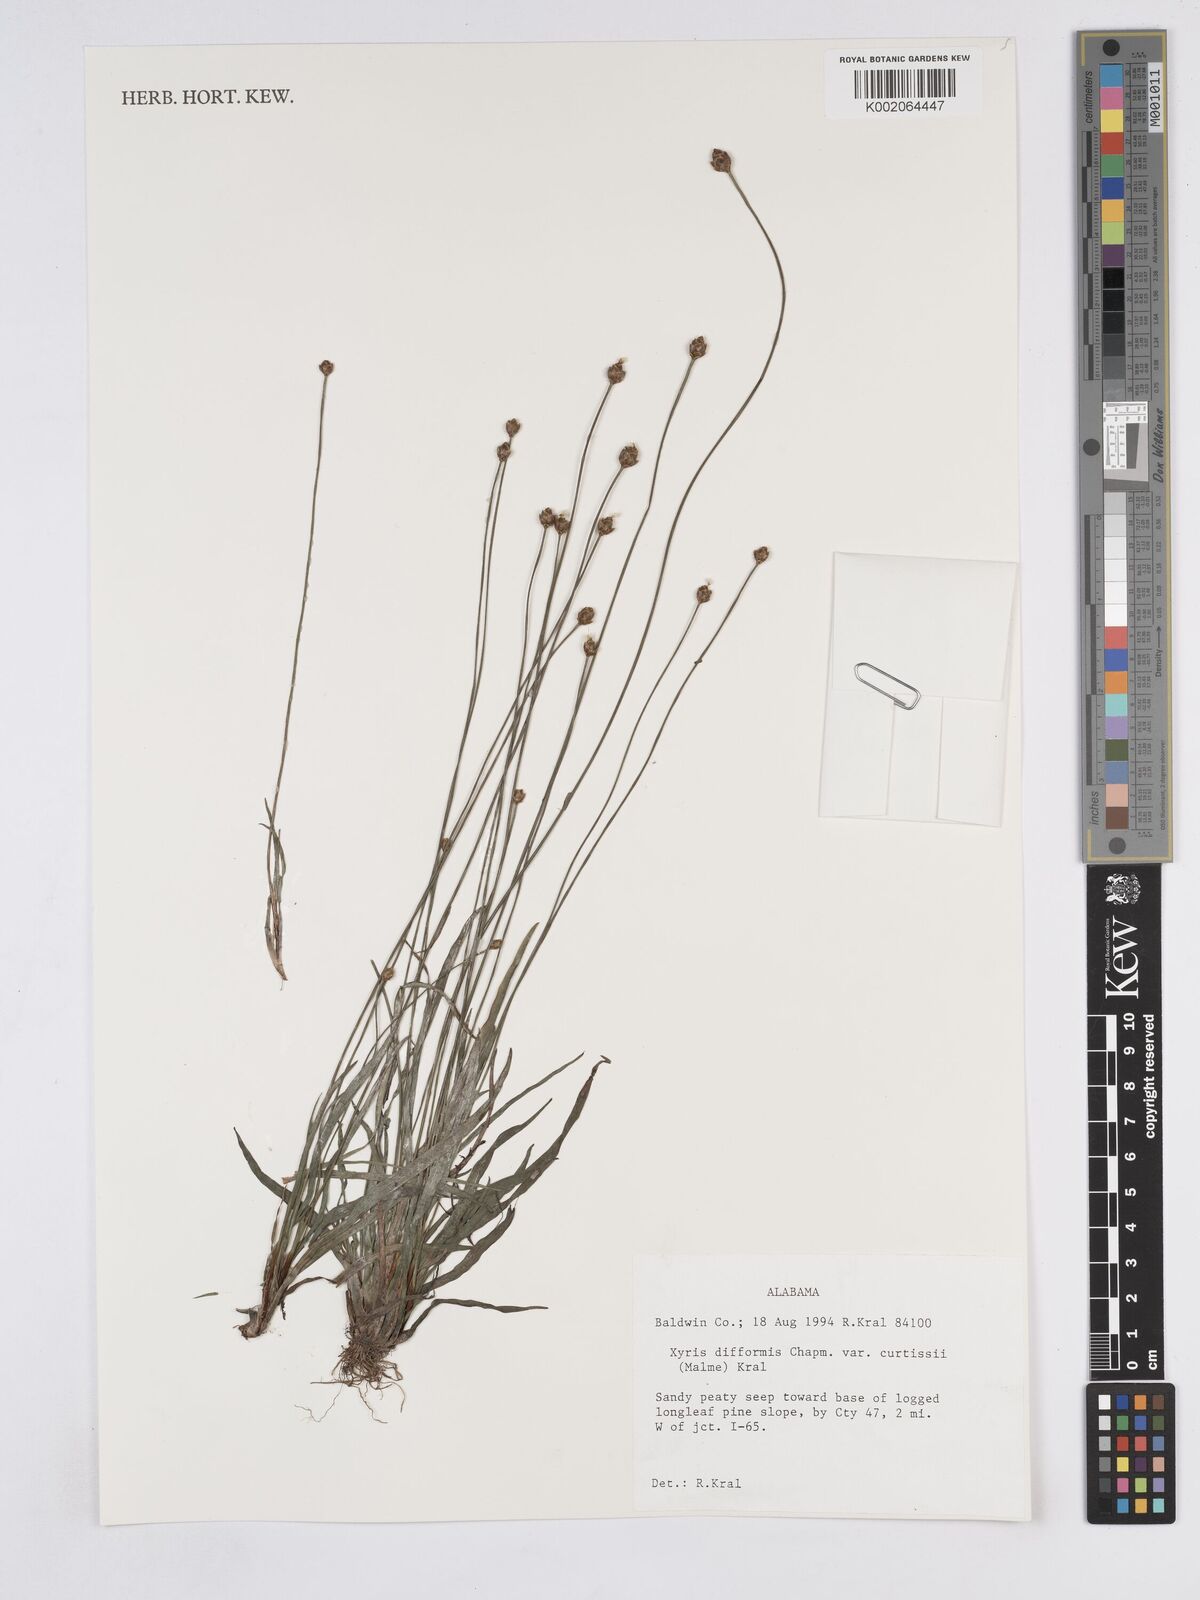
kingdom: Plantae
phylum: Tracheophyta
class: Liliopsida
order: Poales
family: Xyridaceae
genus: Xyris
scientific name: Xyris difformis
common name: Bog yellow-eyed-grass
